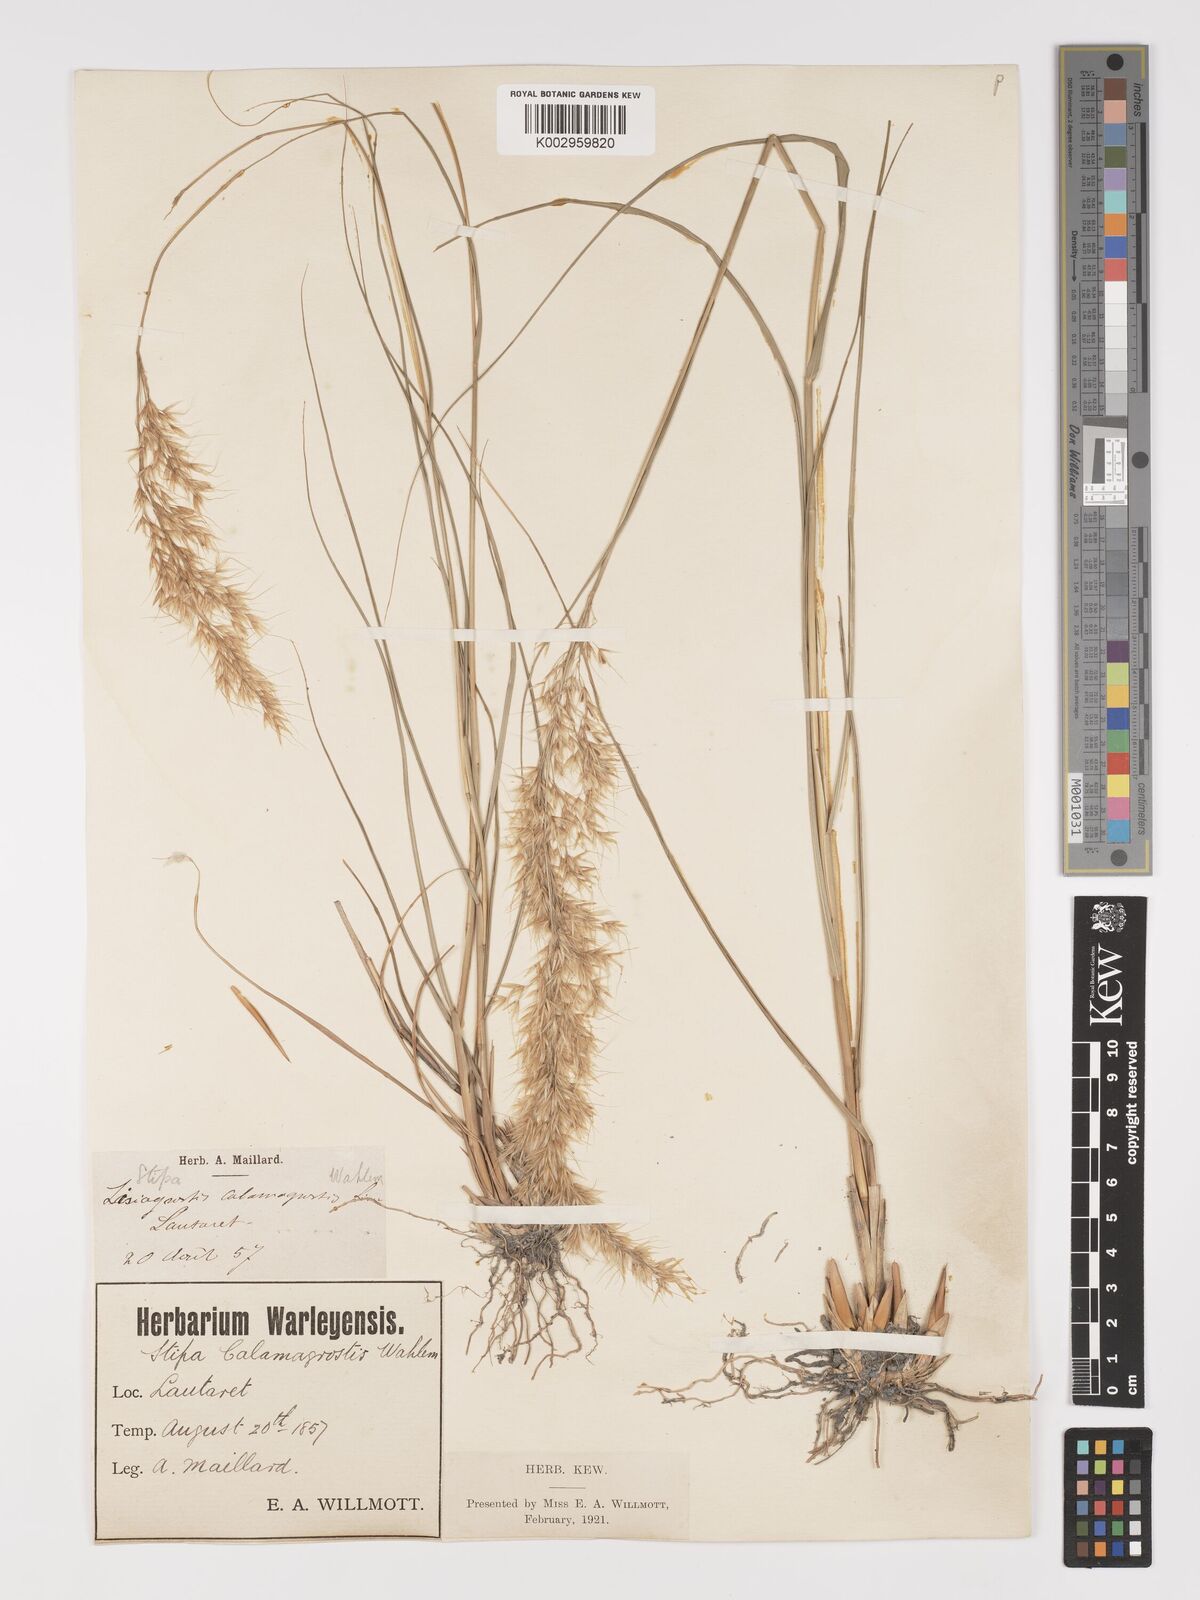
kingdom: Plantae
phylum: Tracheophyta
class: Liliopsida
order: Poales
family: Poaceae
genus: Achnatherum
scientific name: Achnatherum calamagrostis
